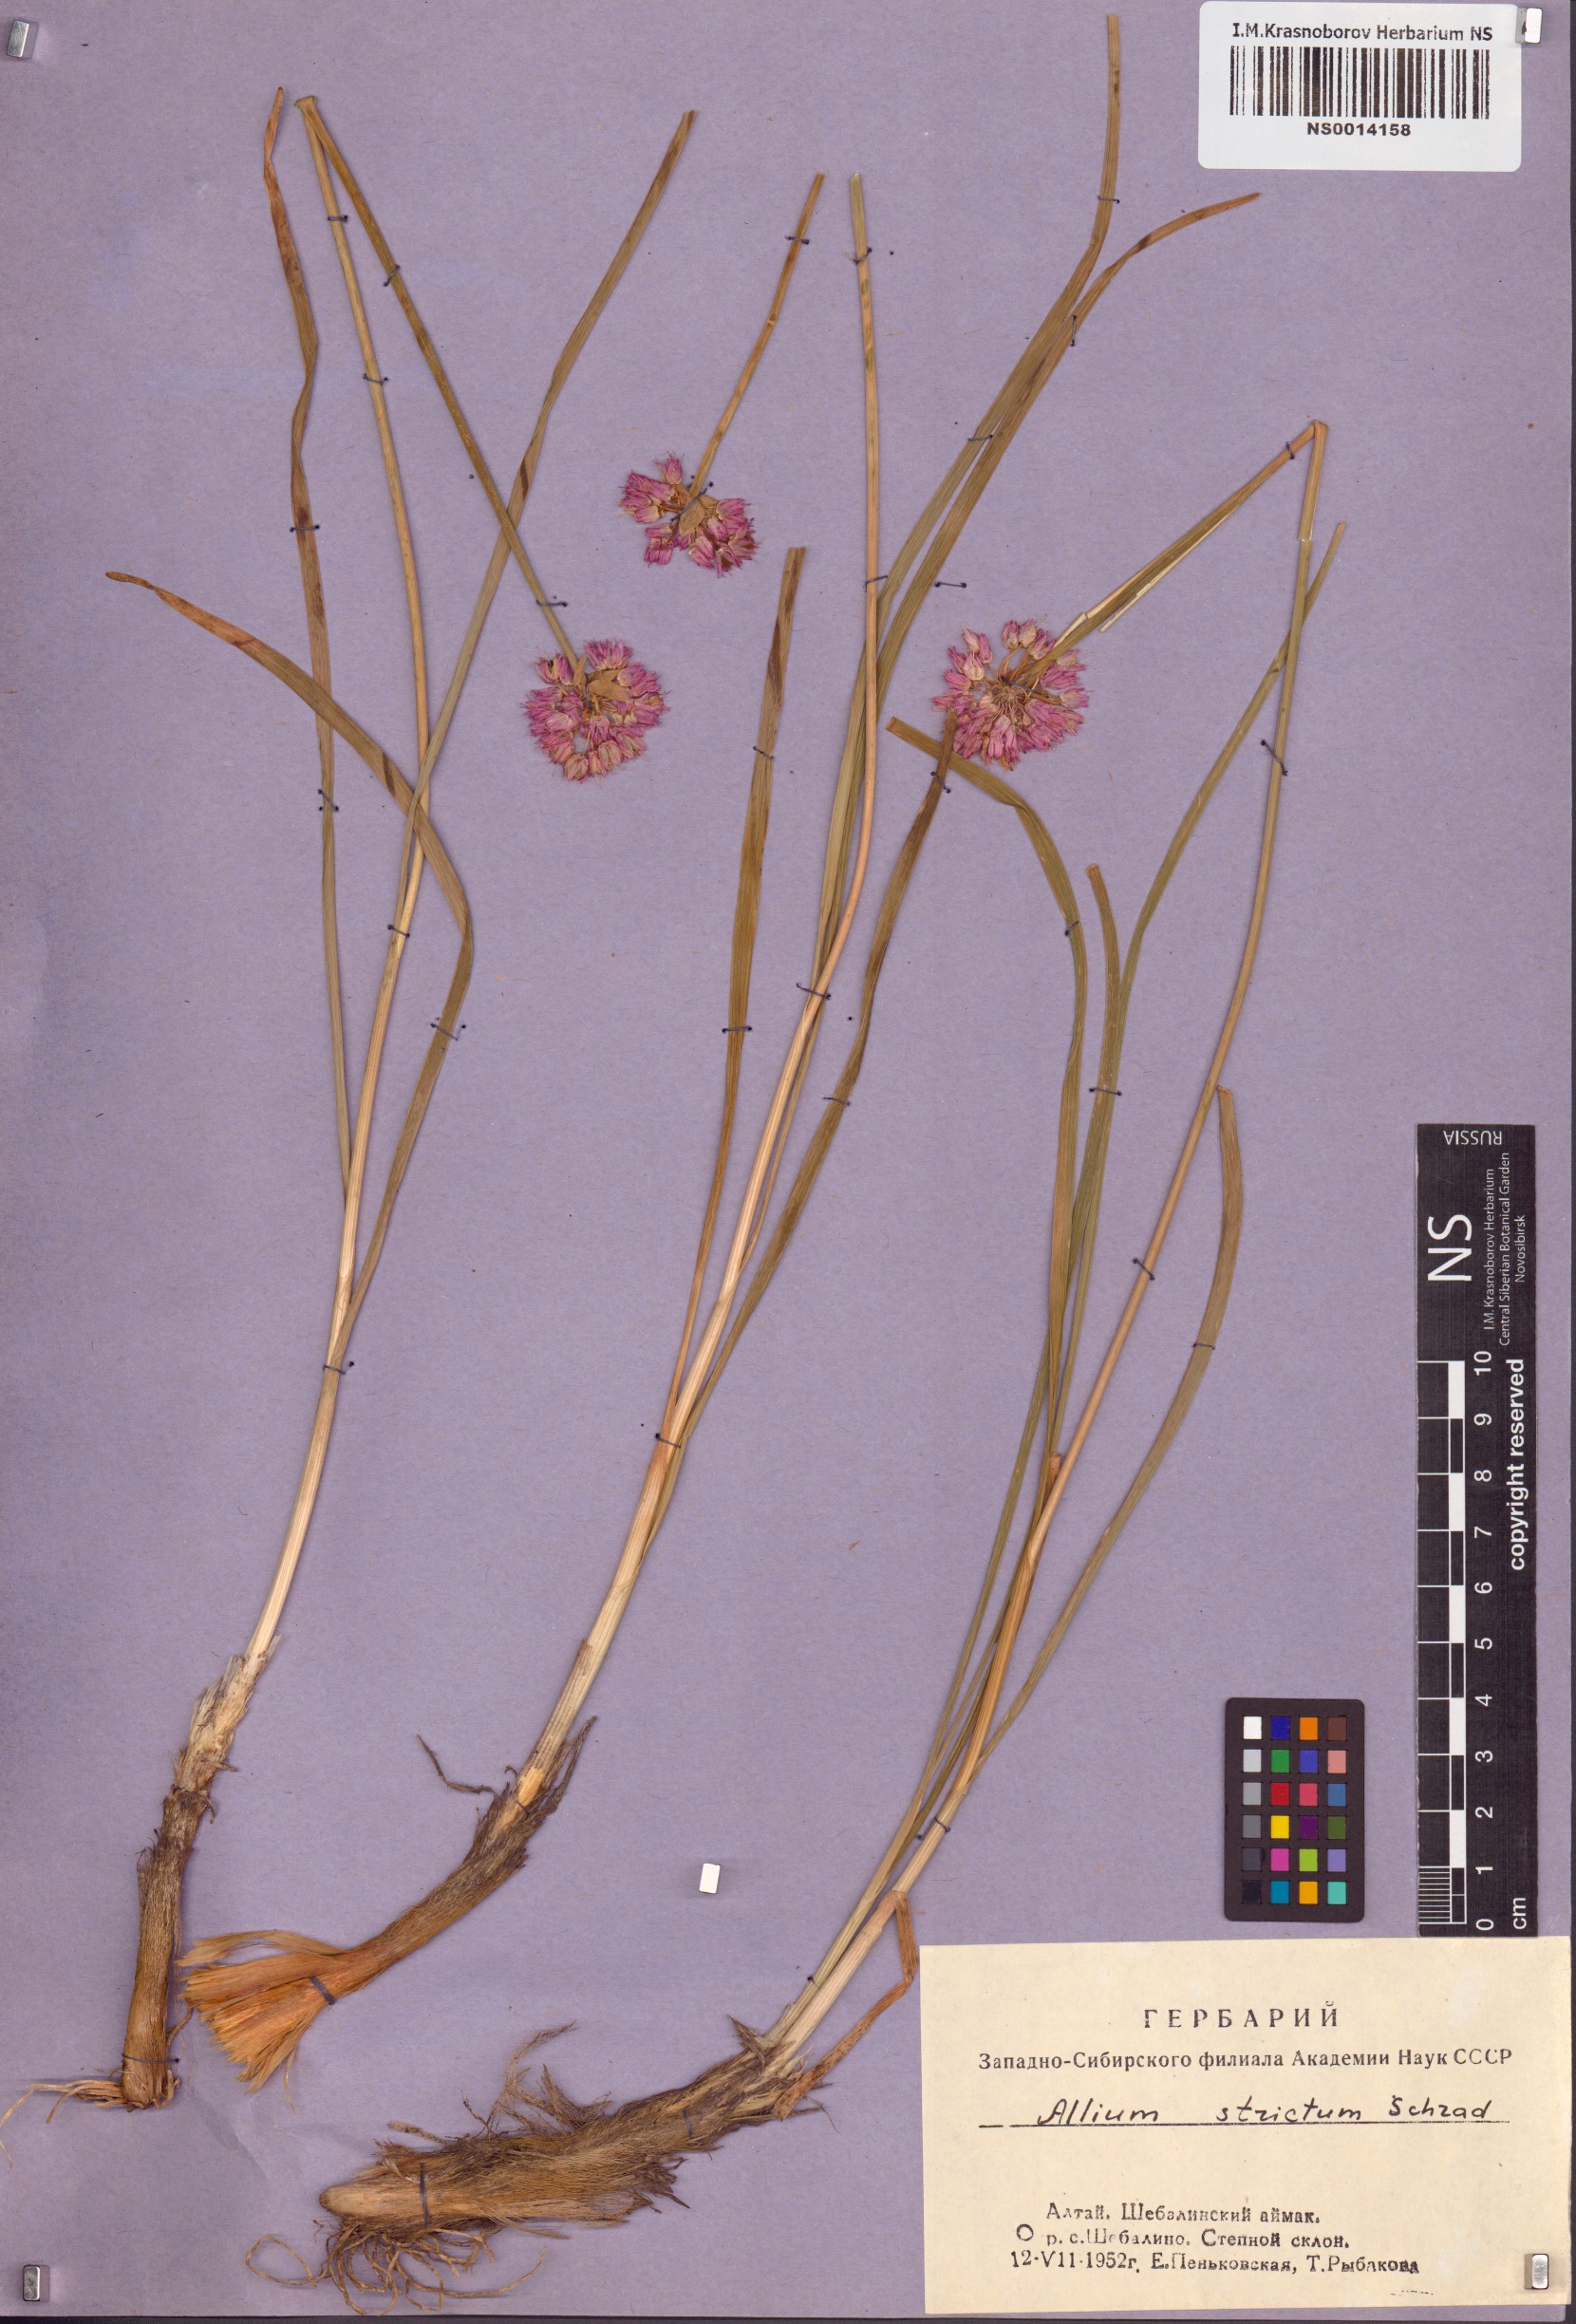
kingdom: Plantae
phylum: Tracheophyta
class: Liliopsida
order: Asparagales
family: Amaryllidaceae
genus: Allium
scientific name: Allium strictum
